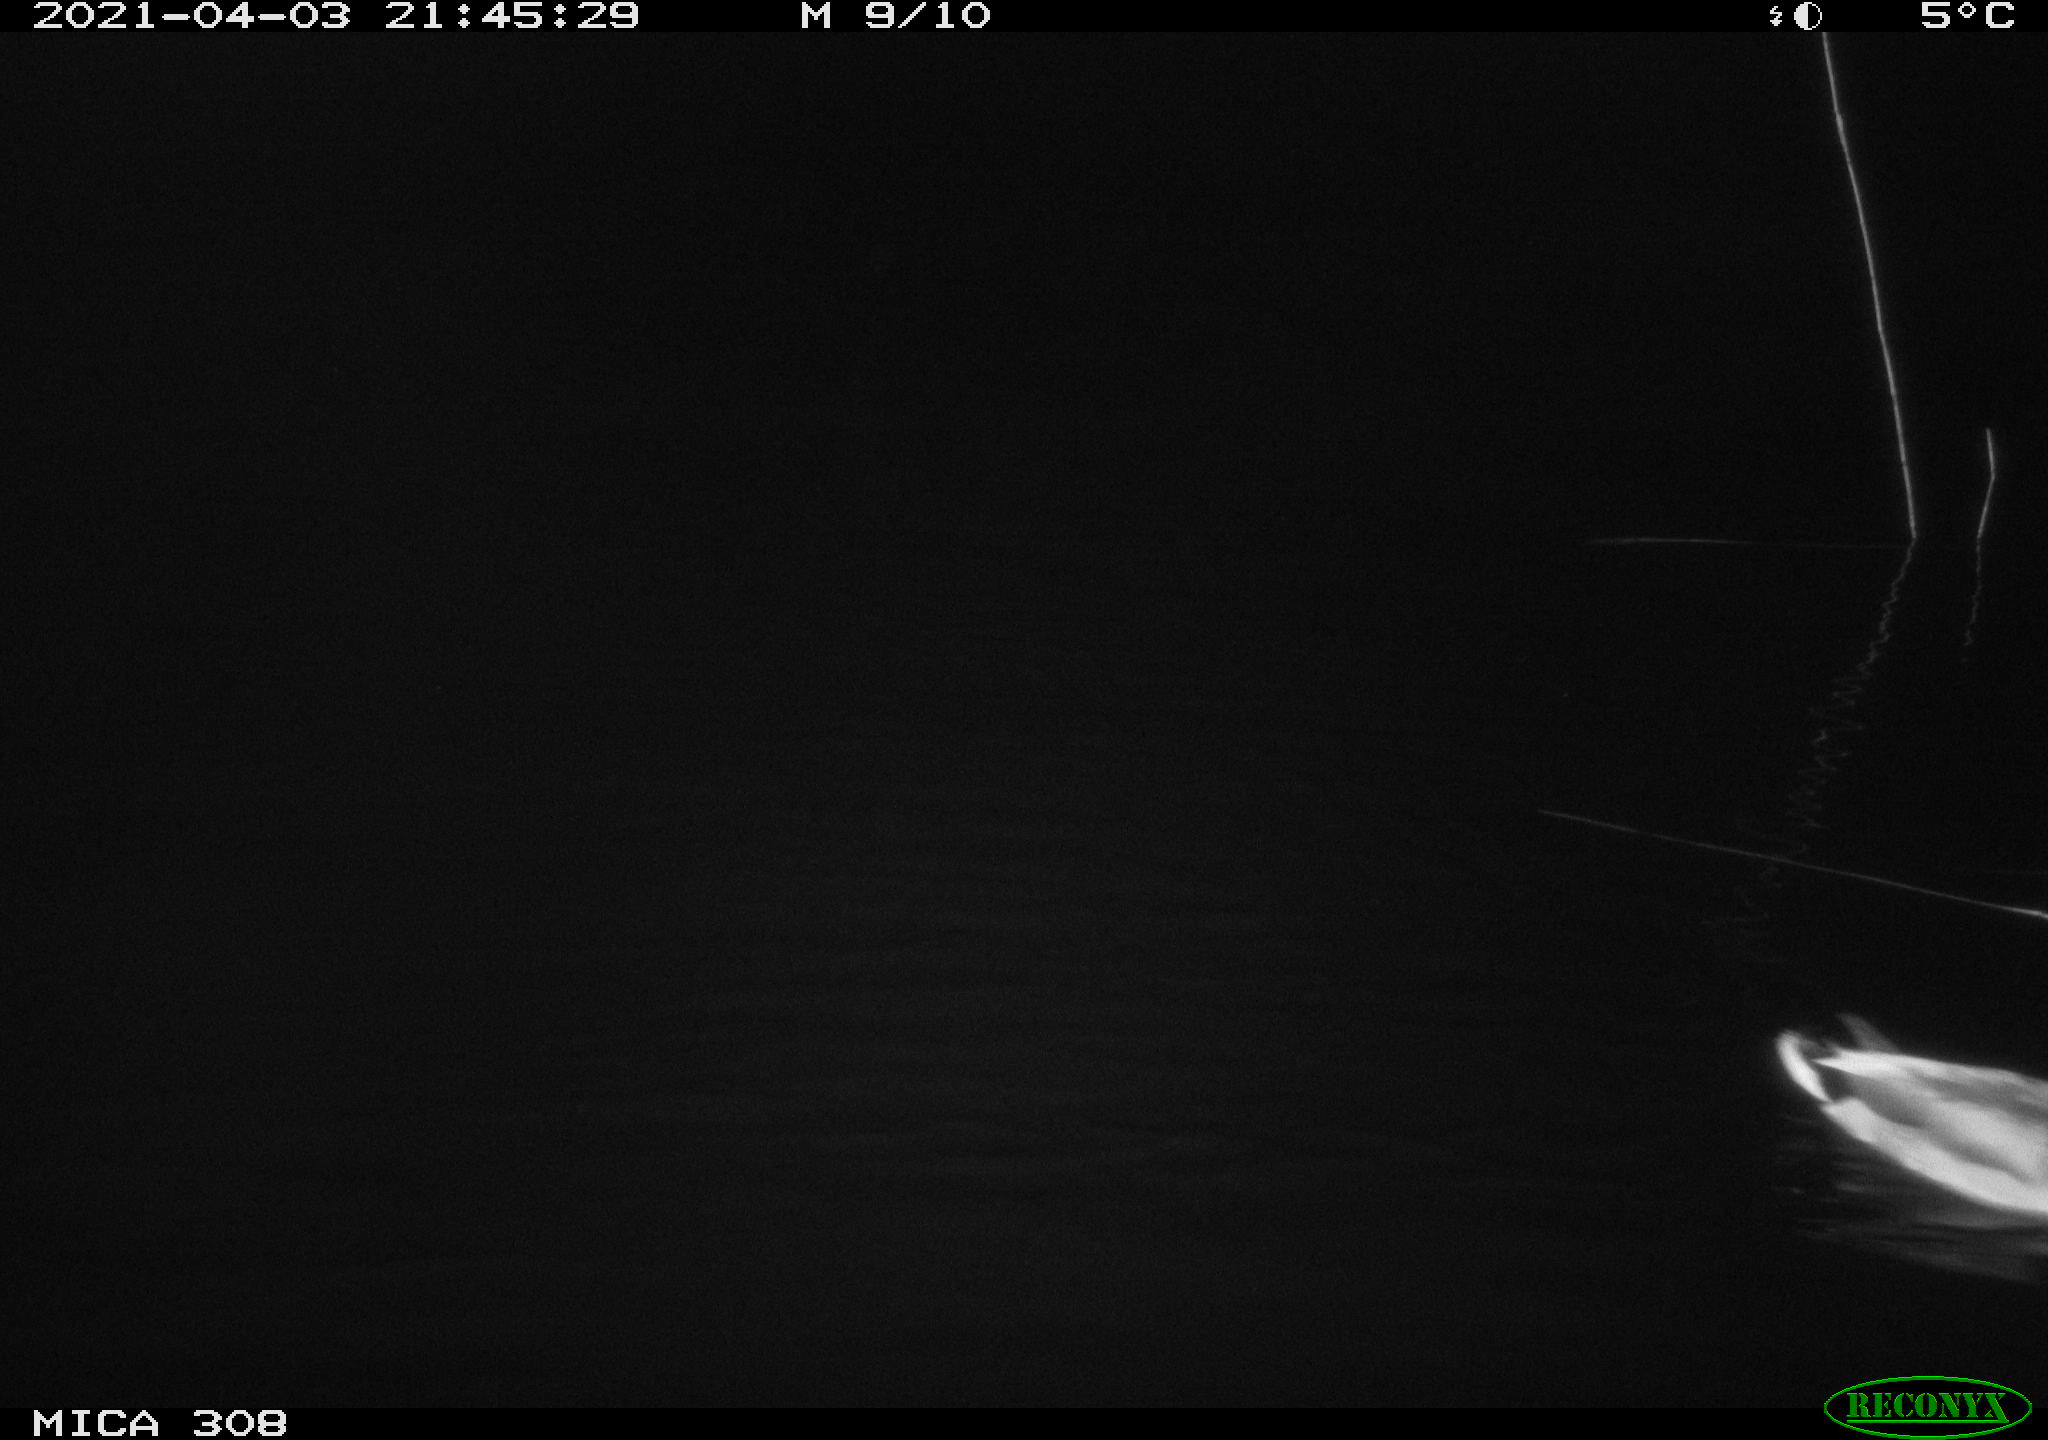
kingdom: Animalia
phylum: Chordata
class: Aves
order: Anseriformes
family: Anatidae
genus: Anas
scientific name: Anas platyrhynchos
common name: Mallard
